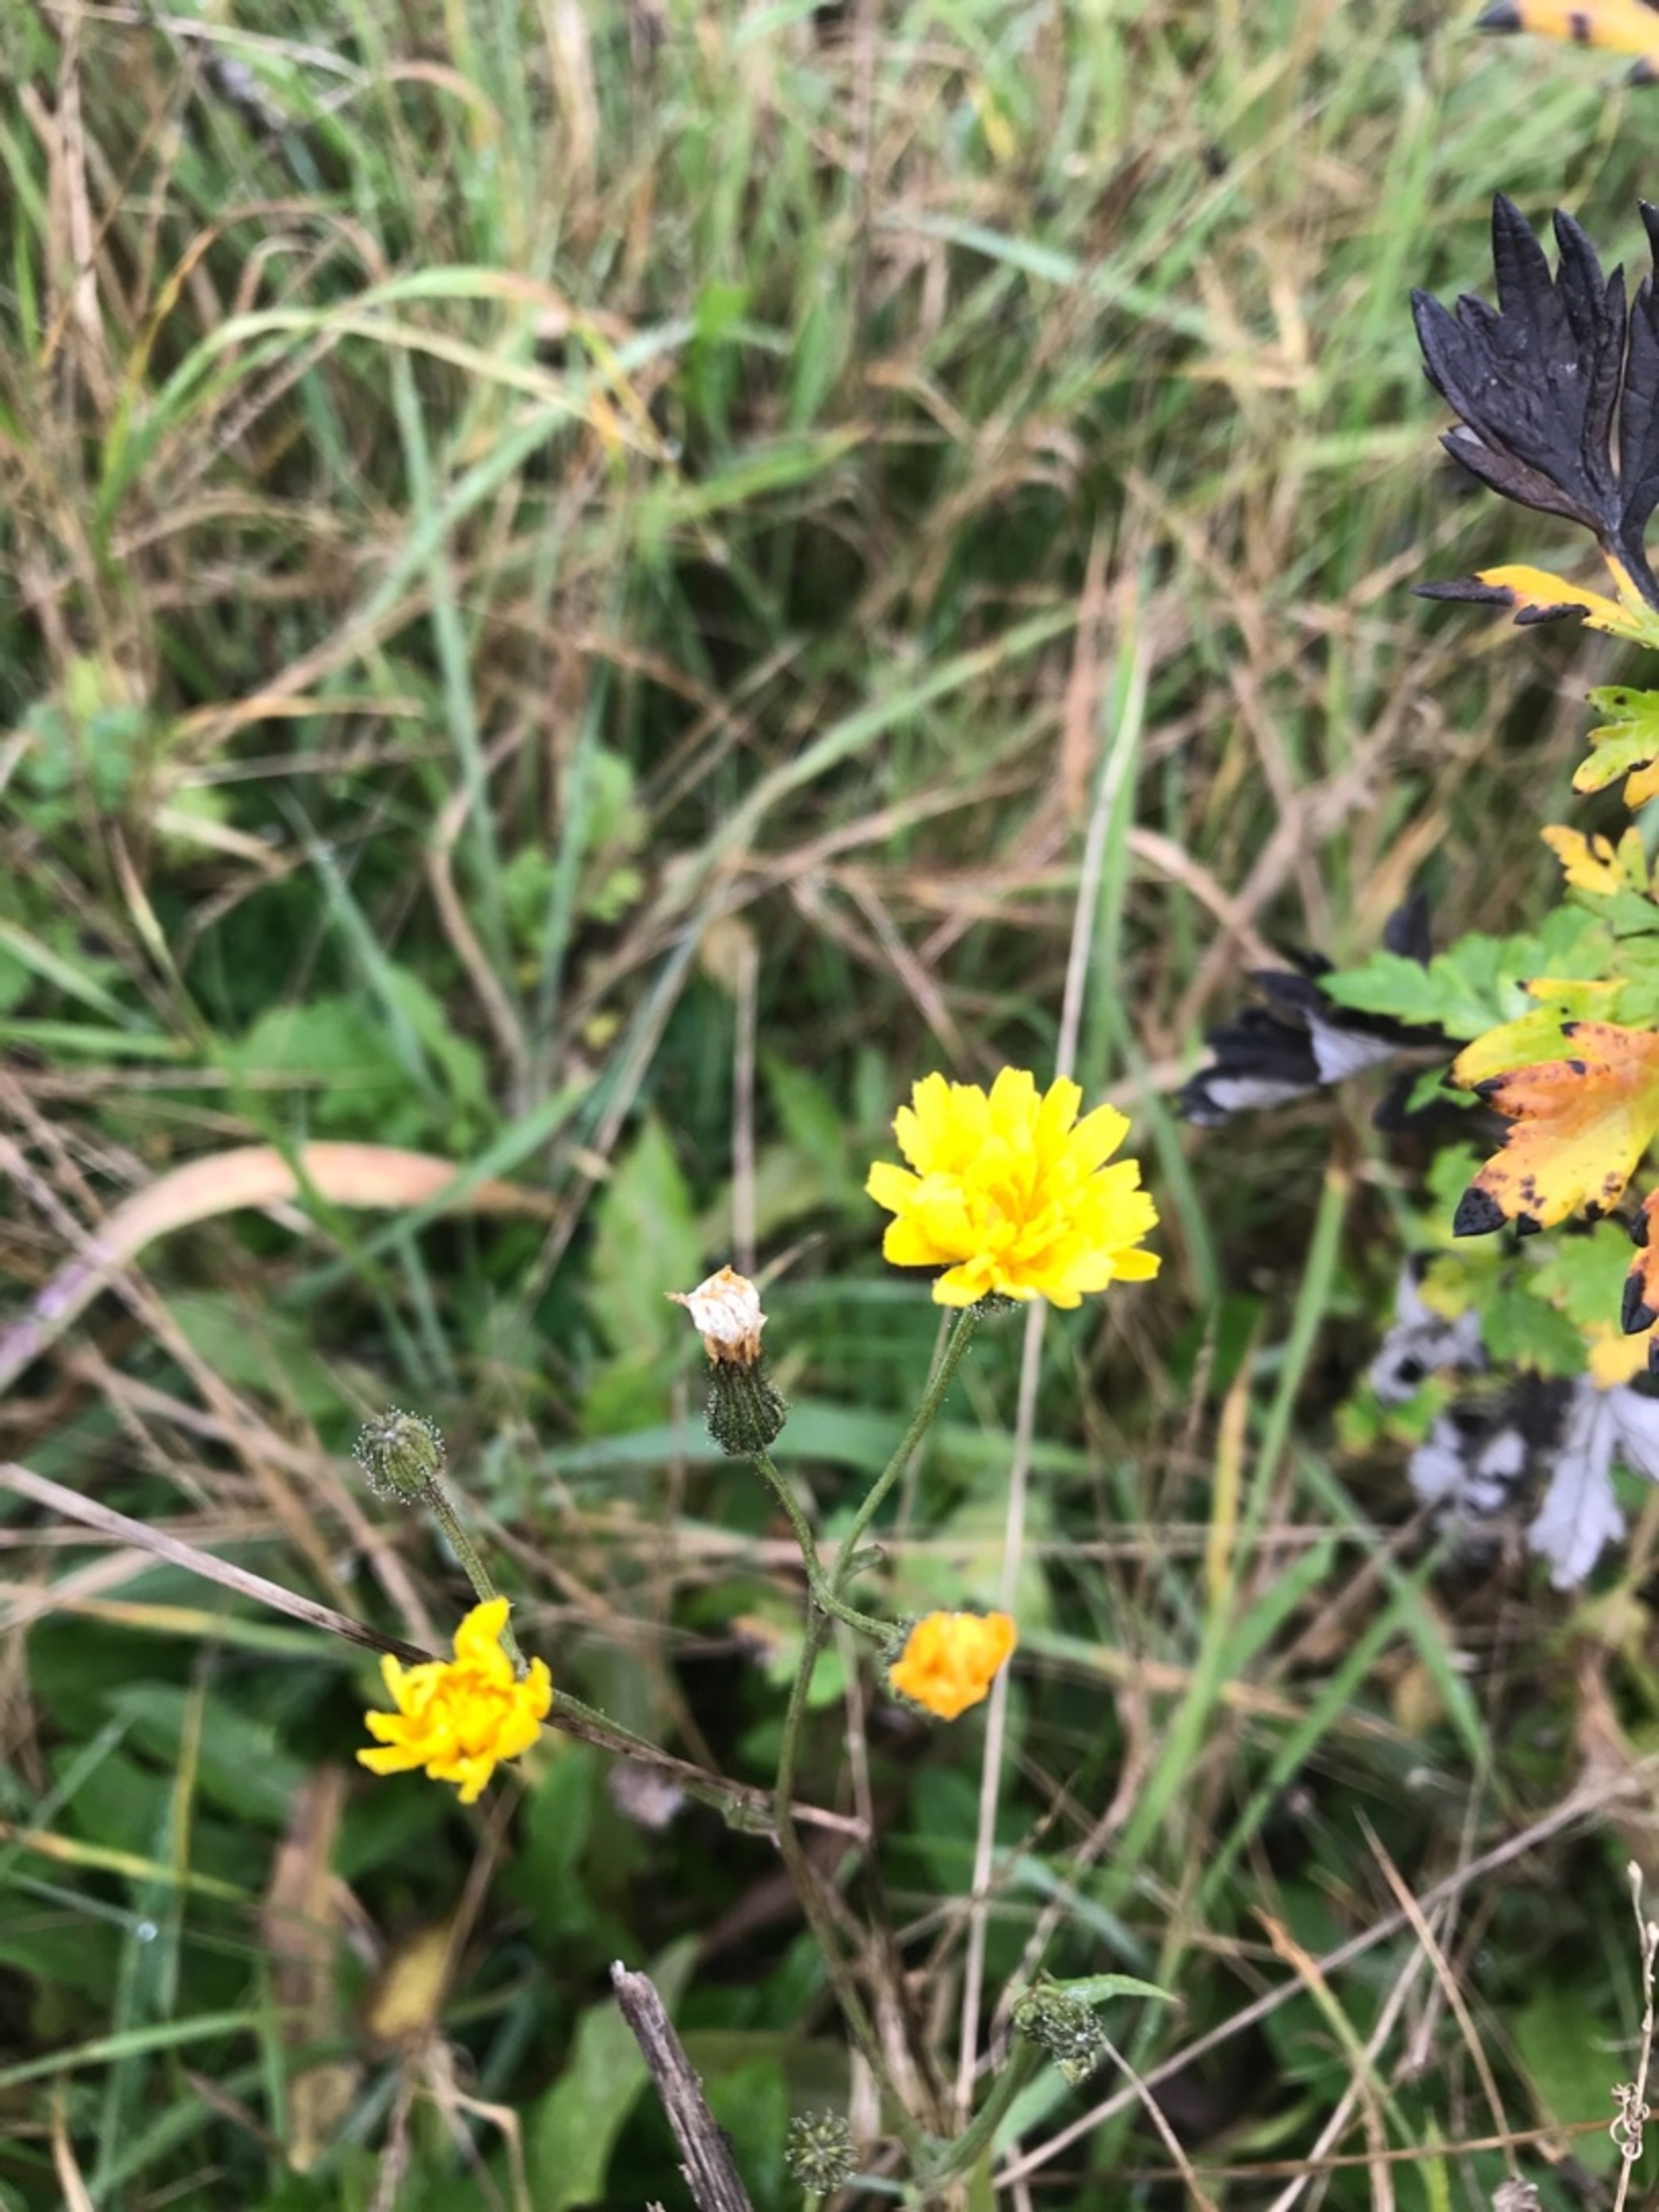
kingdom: Plantae
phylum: Tracheophyta
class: Magnoliopsida
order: Asterales
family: Asteraceae
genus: Crepis
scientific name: Crepis
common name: Høgeskægslægten
